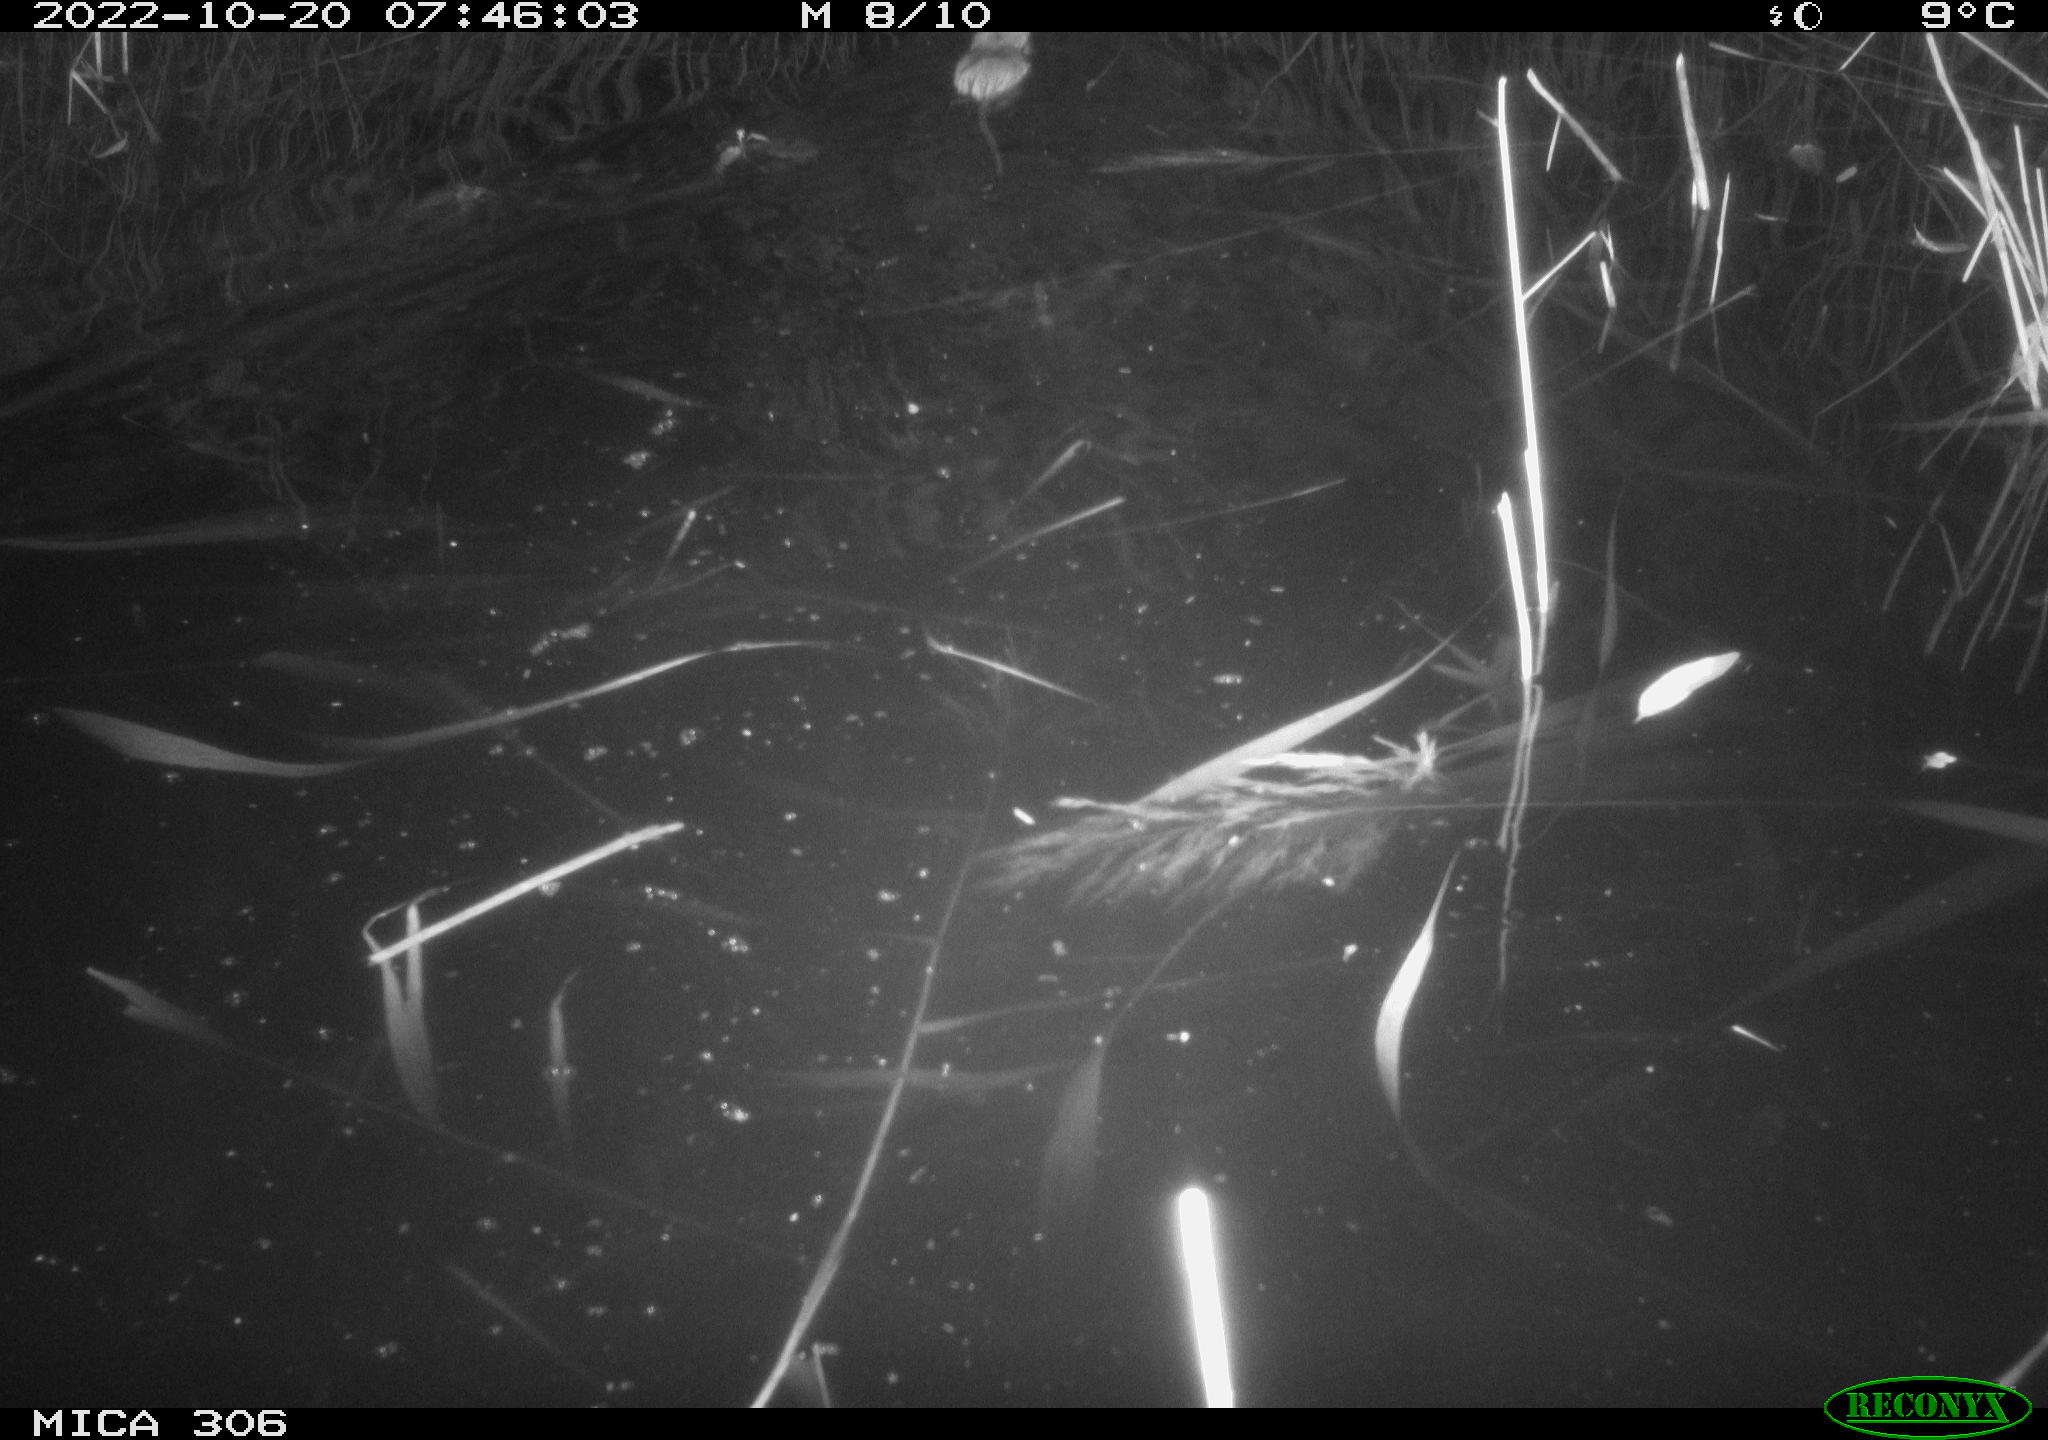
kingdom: Animalia
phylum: Chordata
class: Mammalia
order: Rodentia
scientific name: Rodentia
